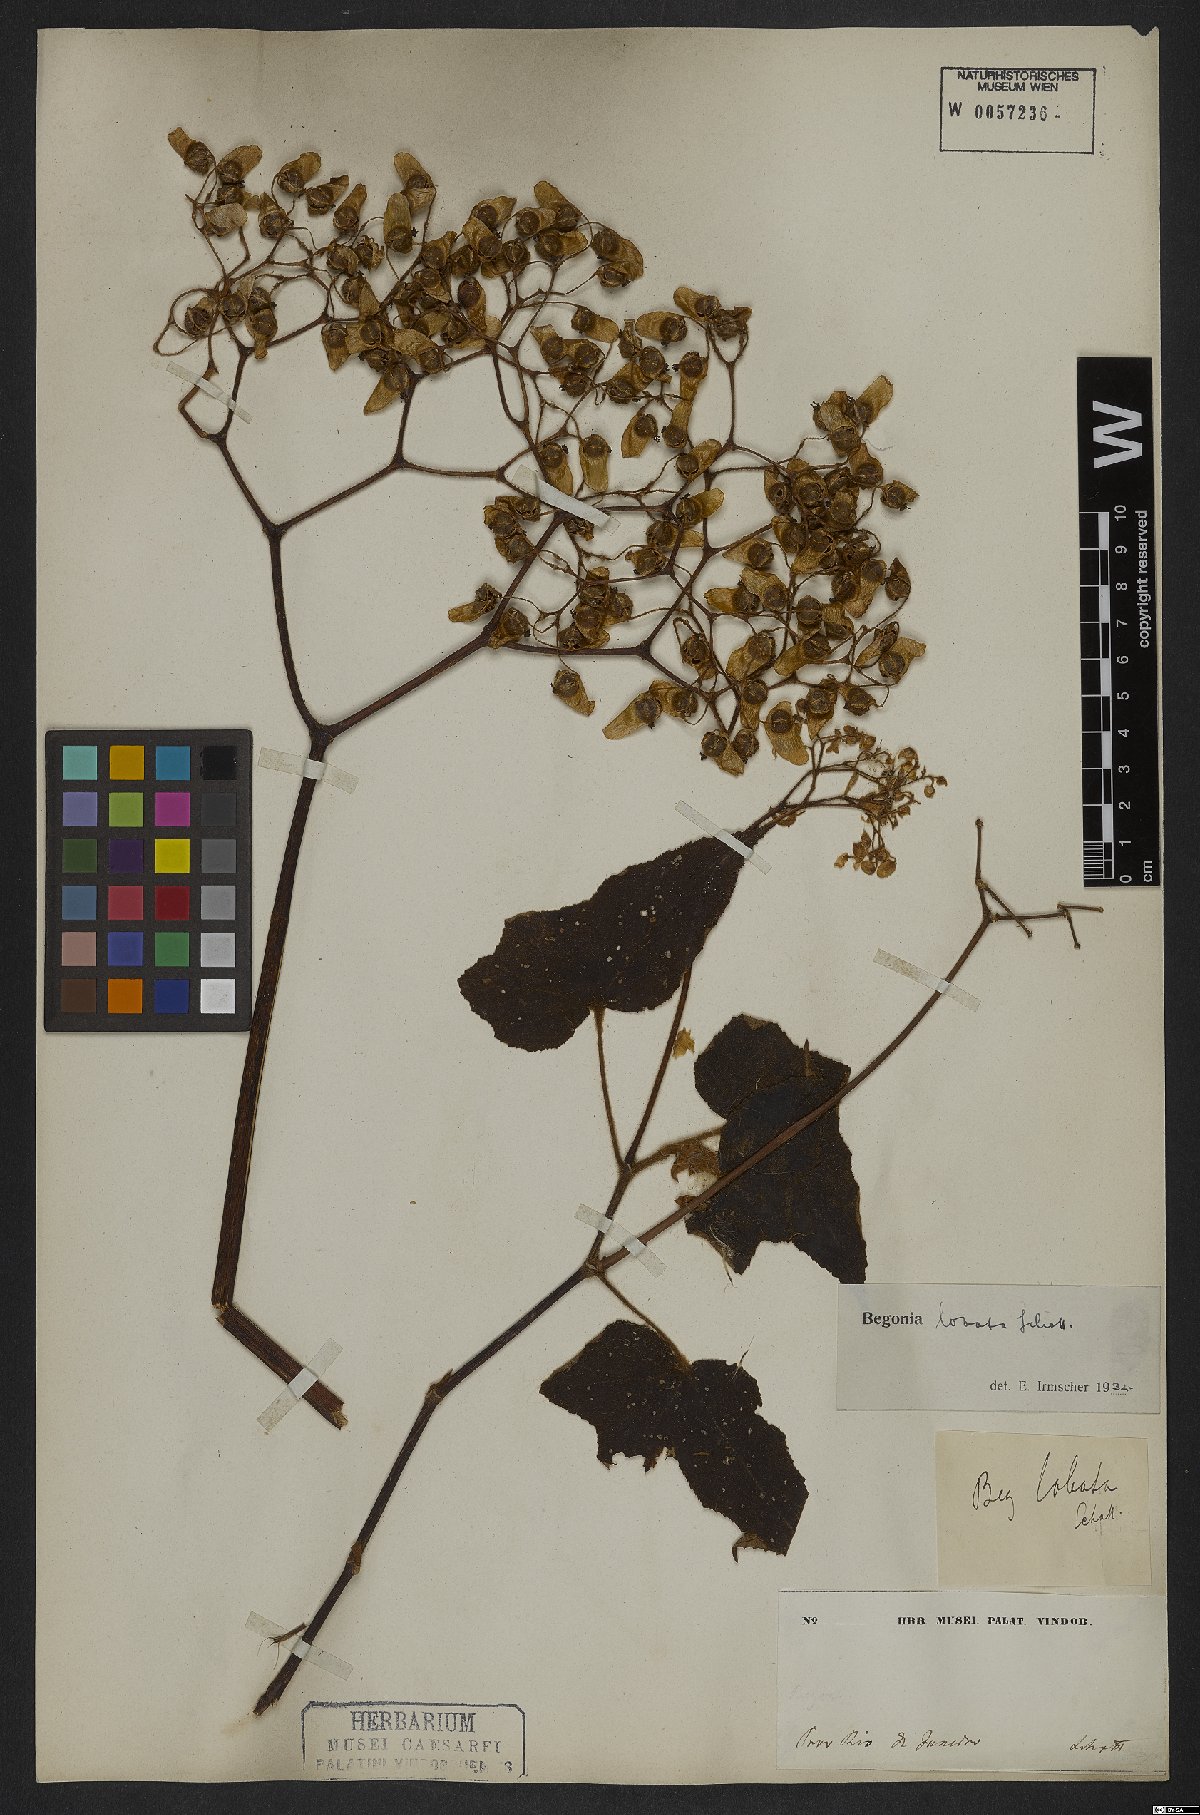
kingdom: Plantae
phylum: Tracheophyta
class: Magnoliopsida
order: Cucurbitales
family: Begoniaceae
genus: Begonia
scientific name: Begonia rufa
